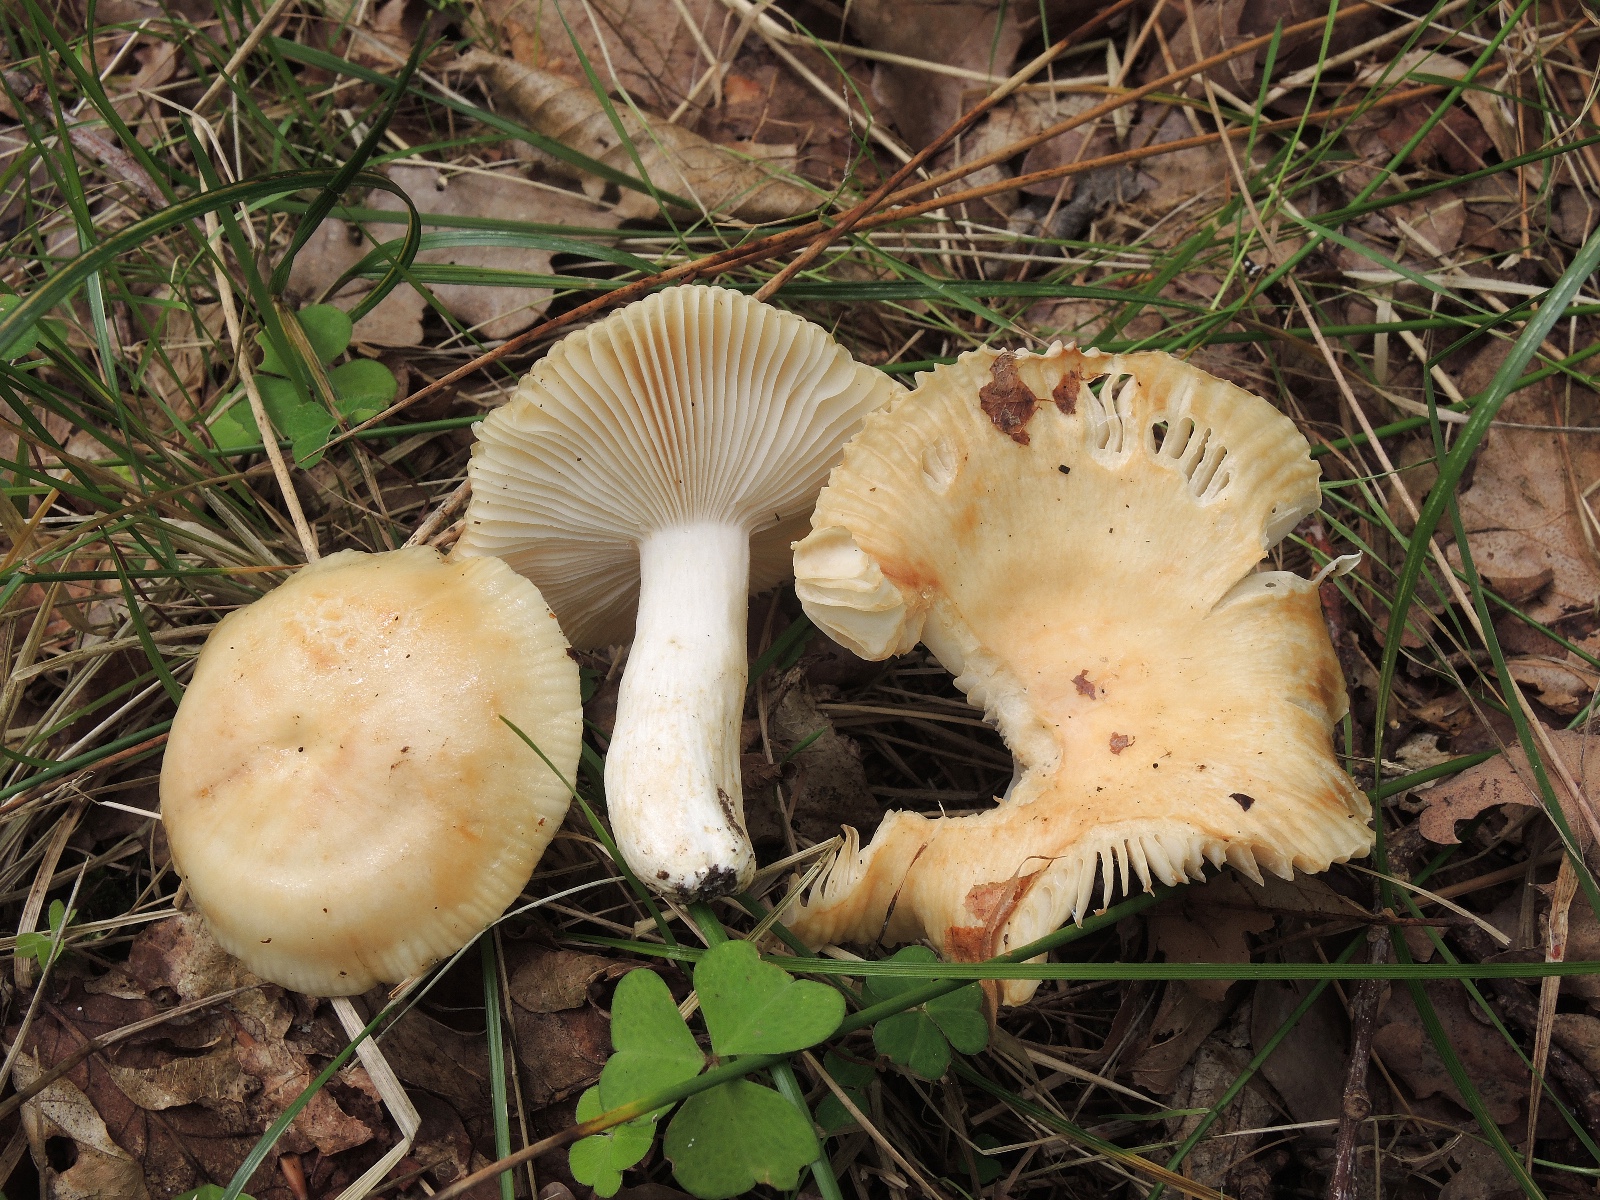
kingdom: Fungi
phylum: Basidiomycota
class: Agaricomycetes
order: Russulales
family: Russulaceae
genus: Russula
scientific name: Russula farinipes
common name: gul kam-skørhat
